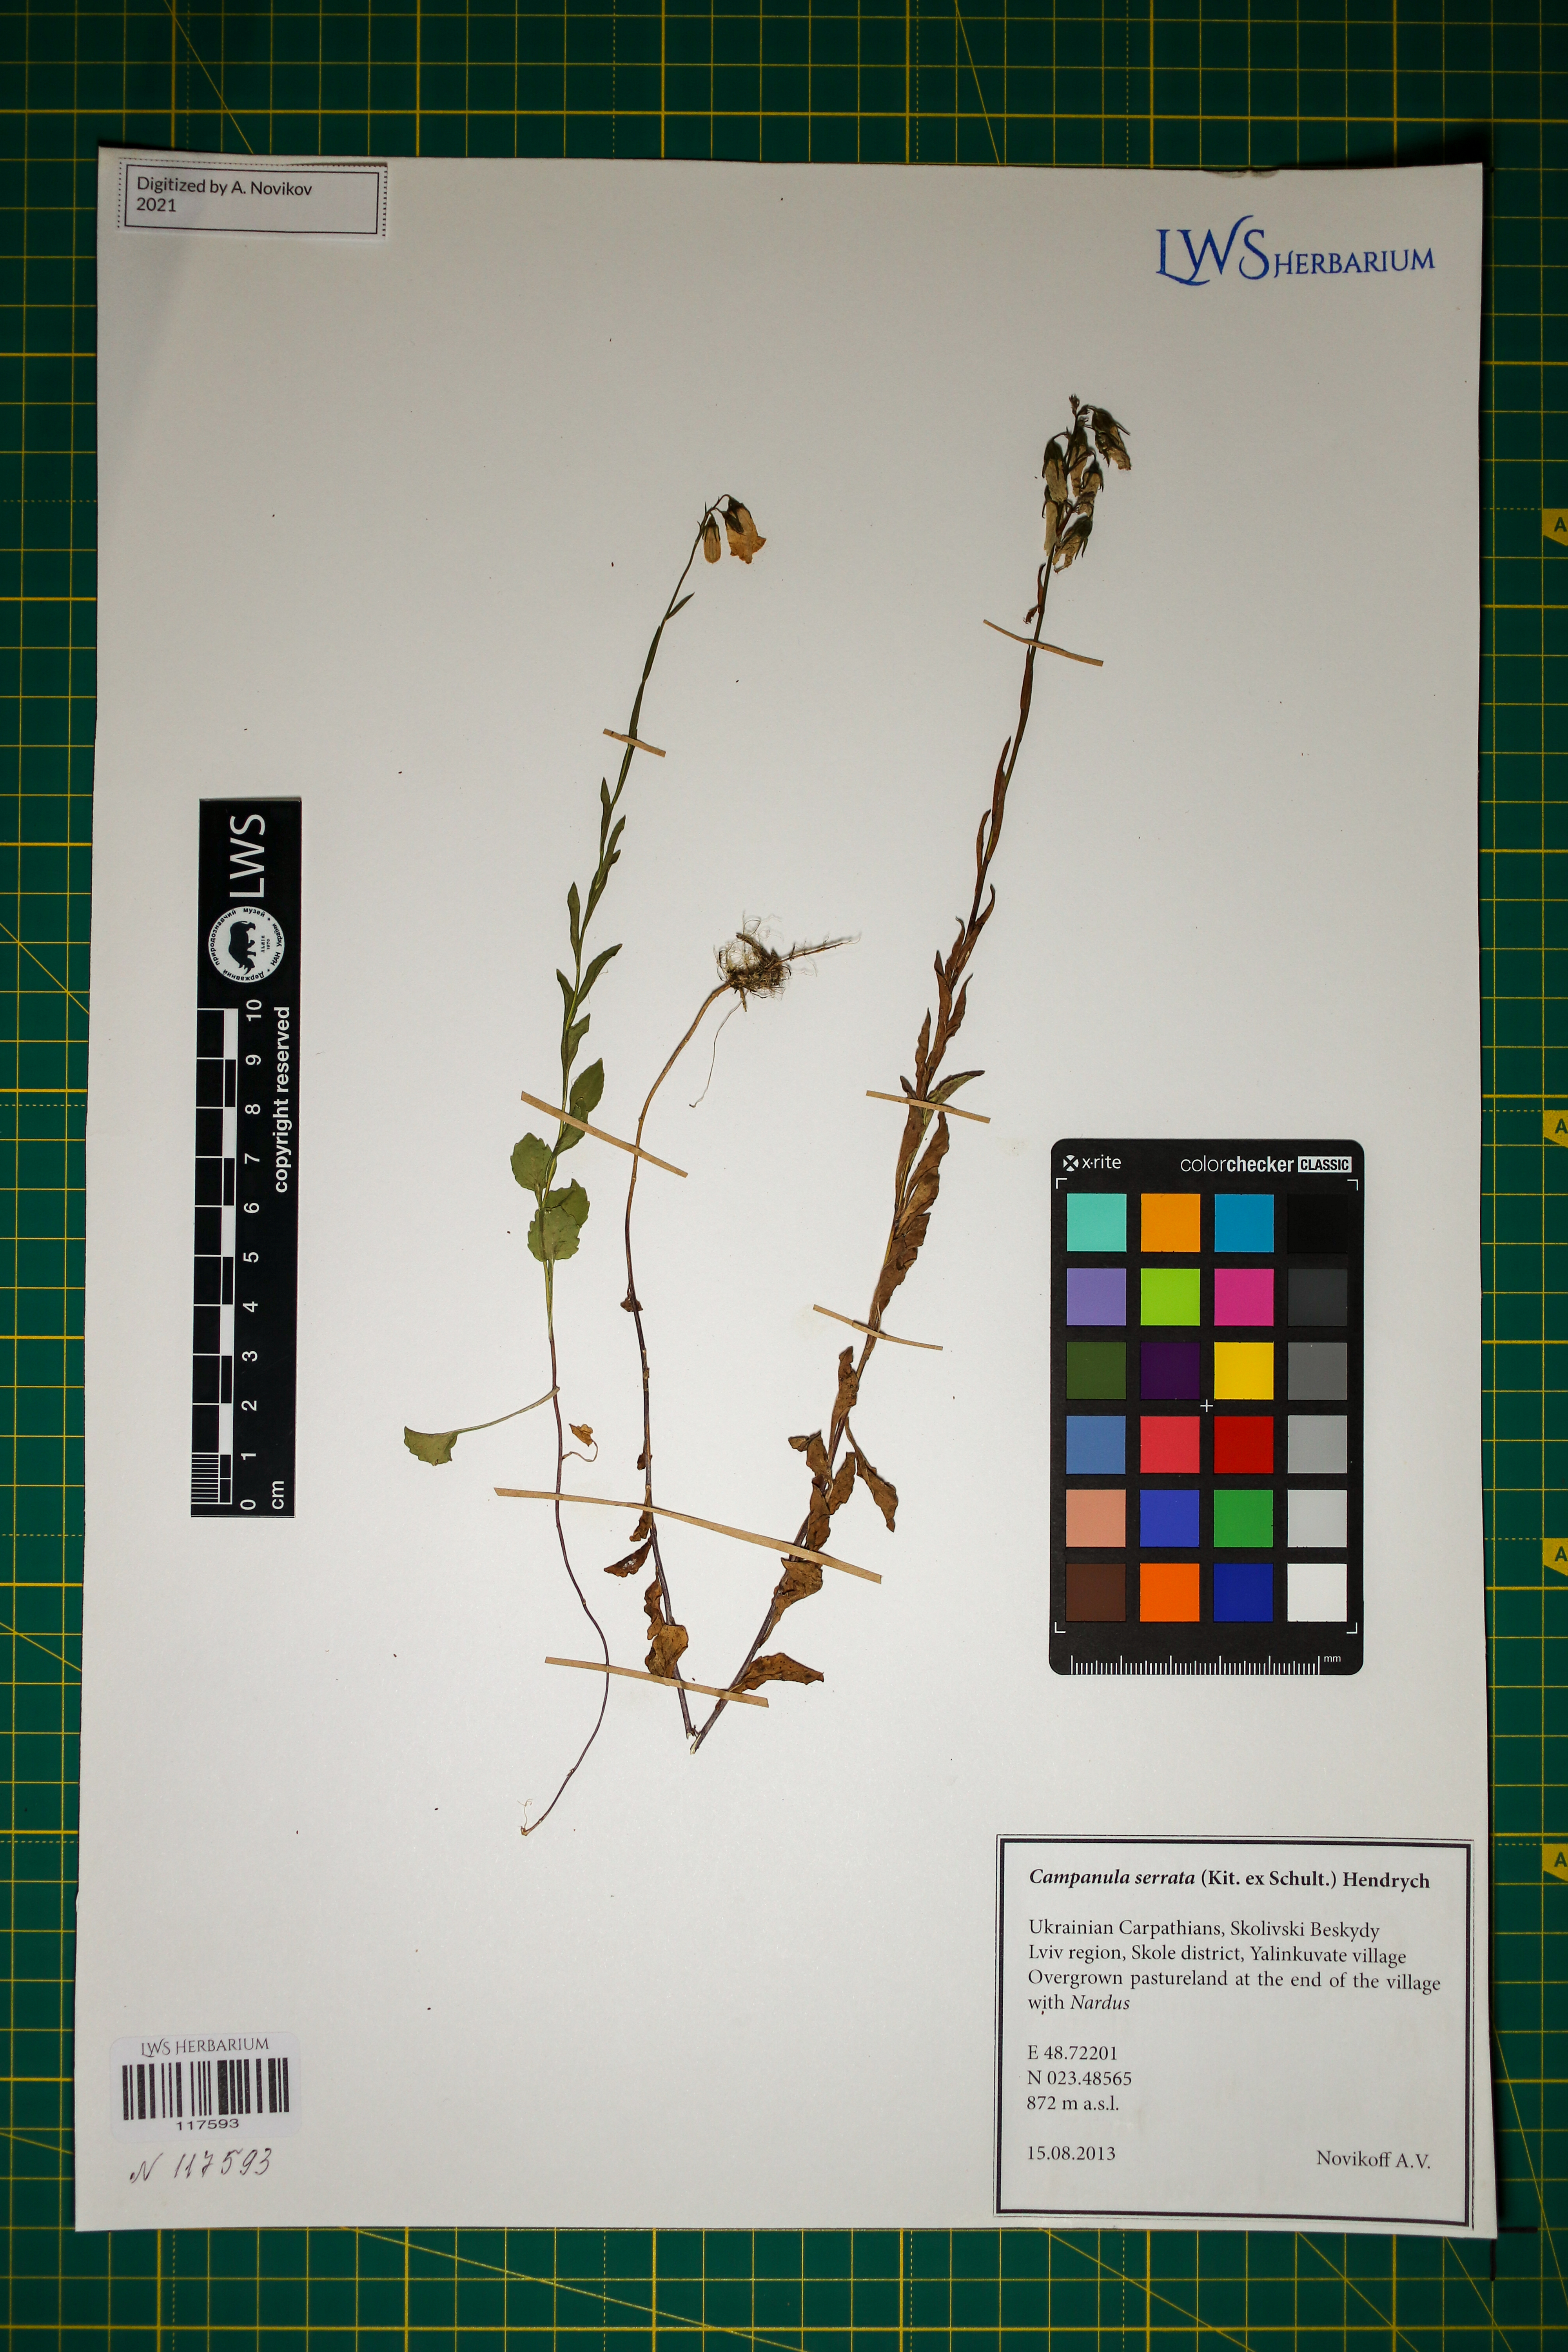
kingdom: Plantae
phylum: Tracheophyta
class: Magnoliopsida
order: Asterales
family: Campanulaceae
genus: Campanula
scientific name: Campanula serrata
